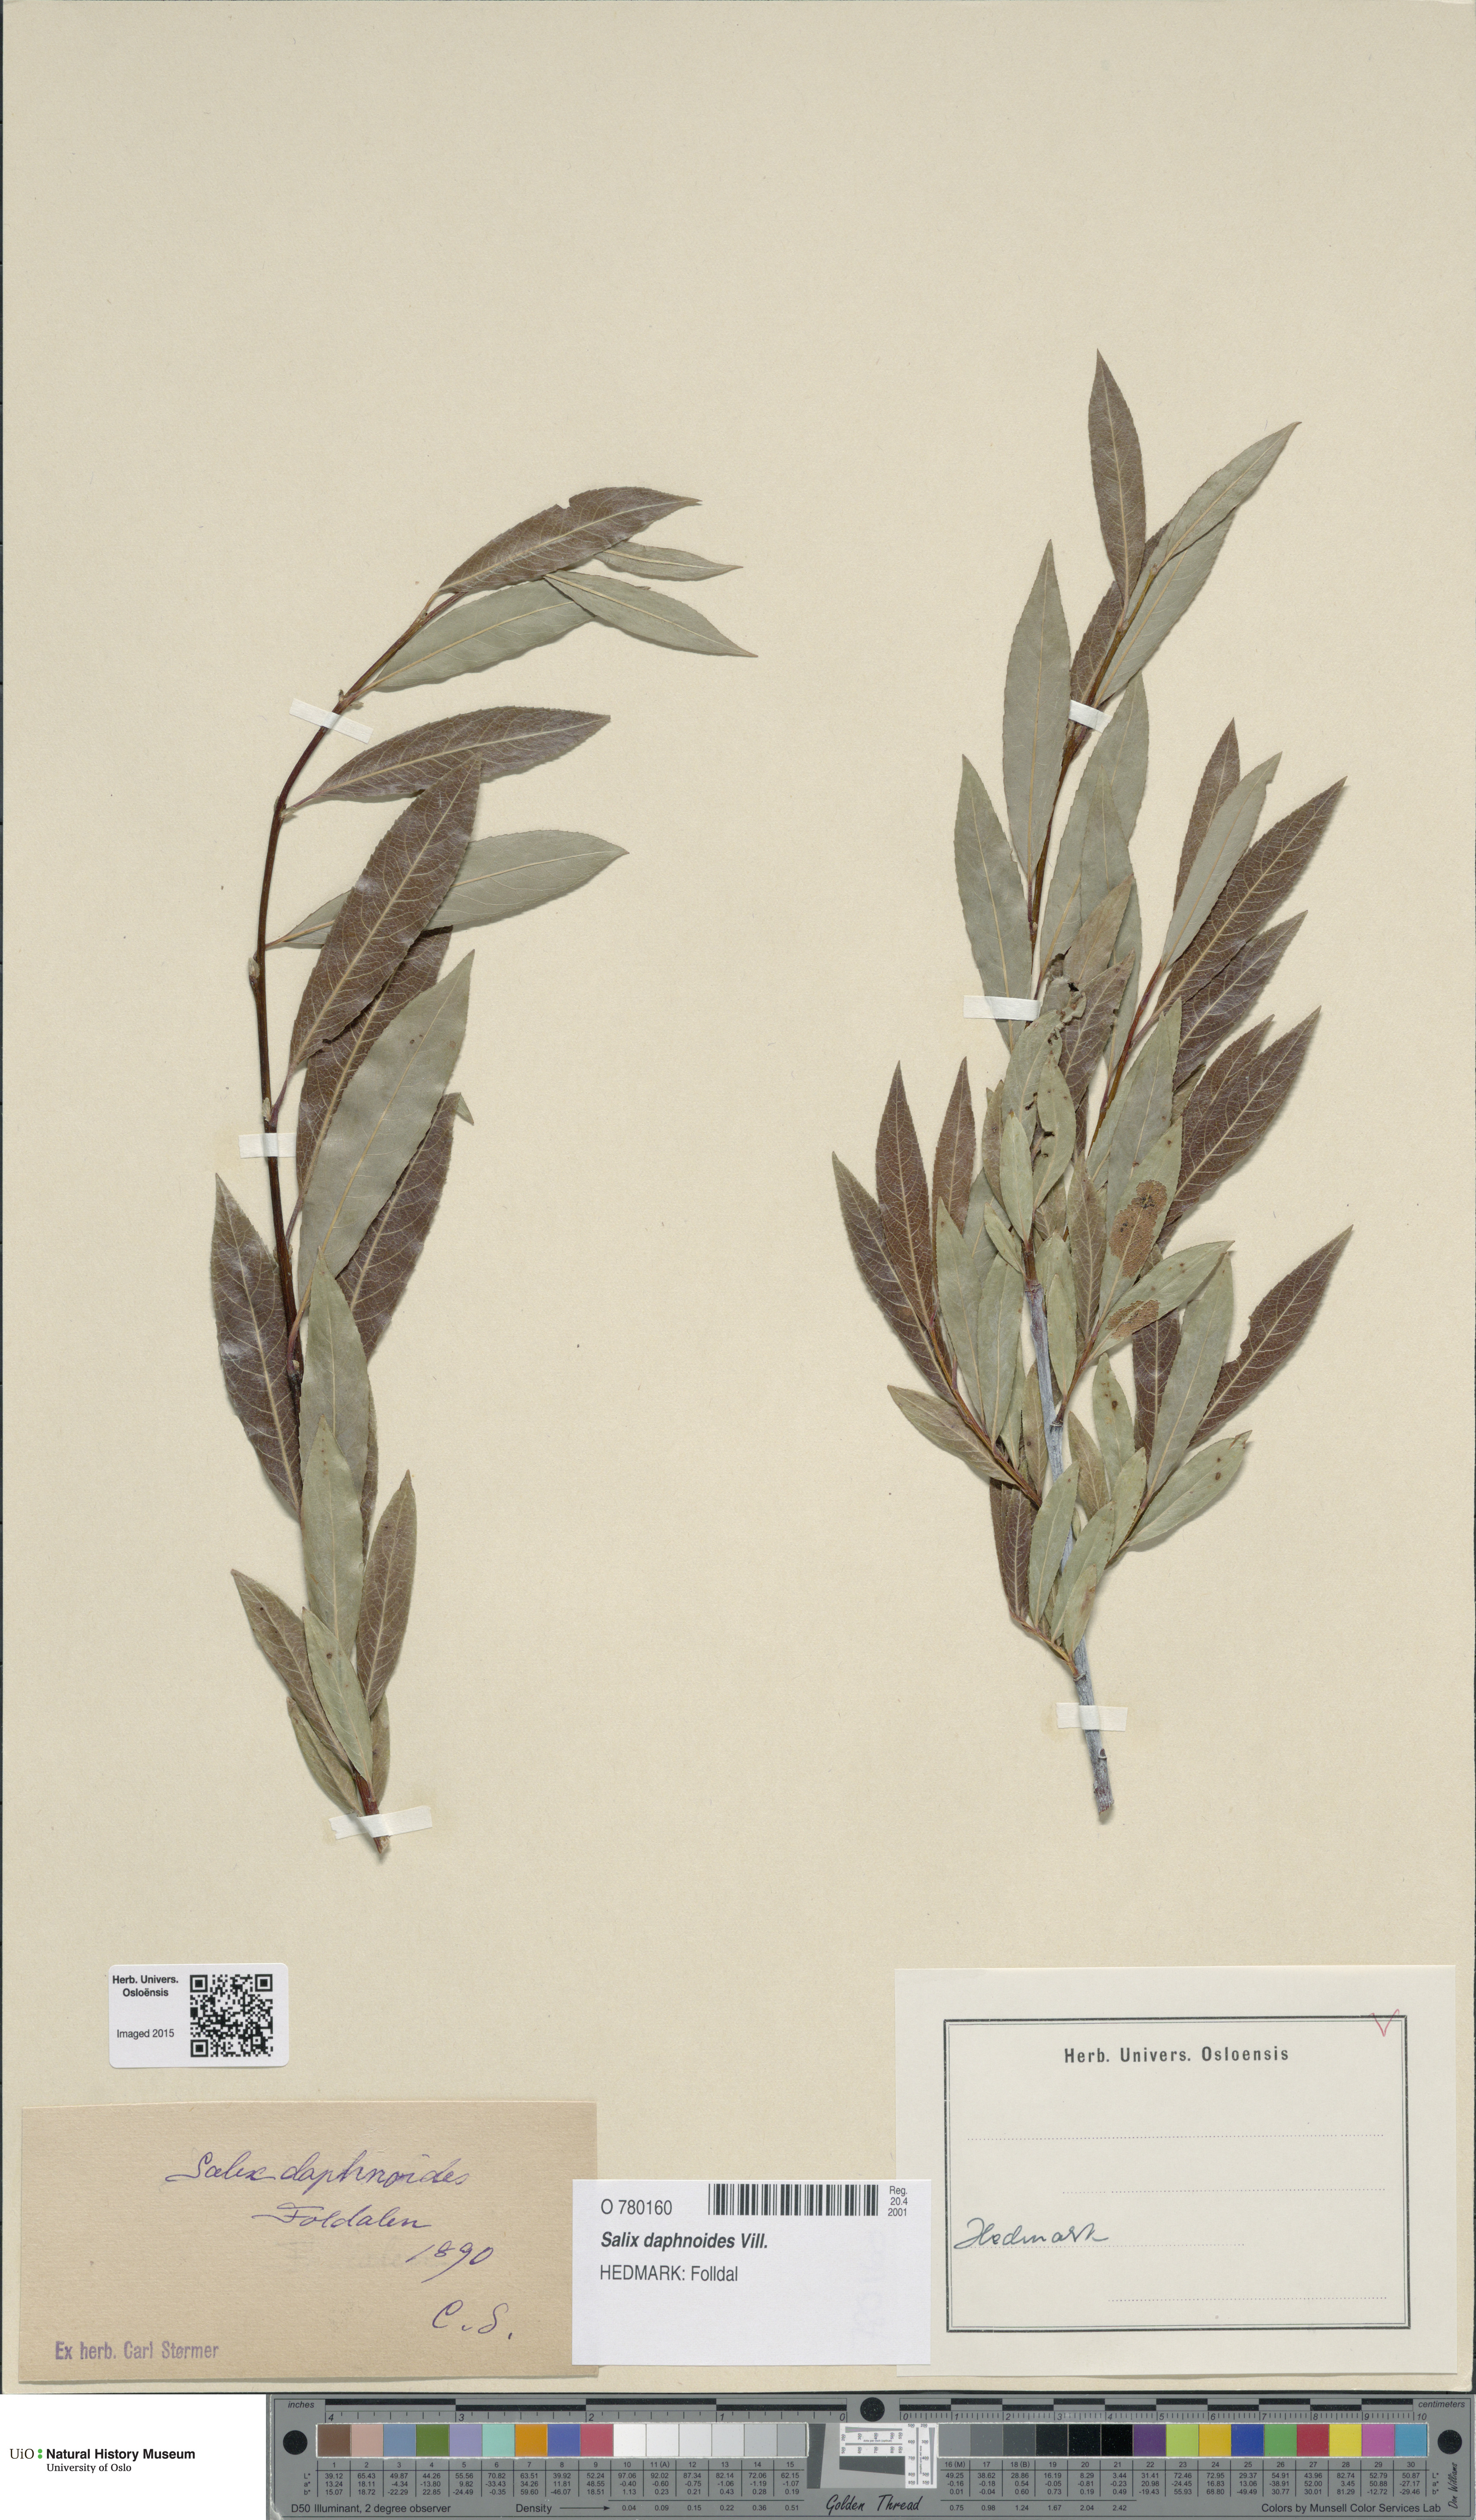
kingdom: Plantae
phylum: Tracheophyta
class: Magnoliopsida
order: Malpighiales
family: Salicaceae
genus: Salix
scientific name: Salix daphnoides
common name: European violet-willow
